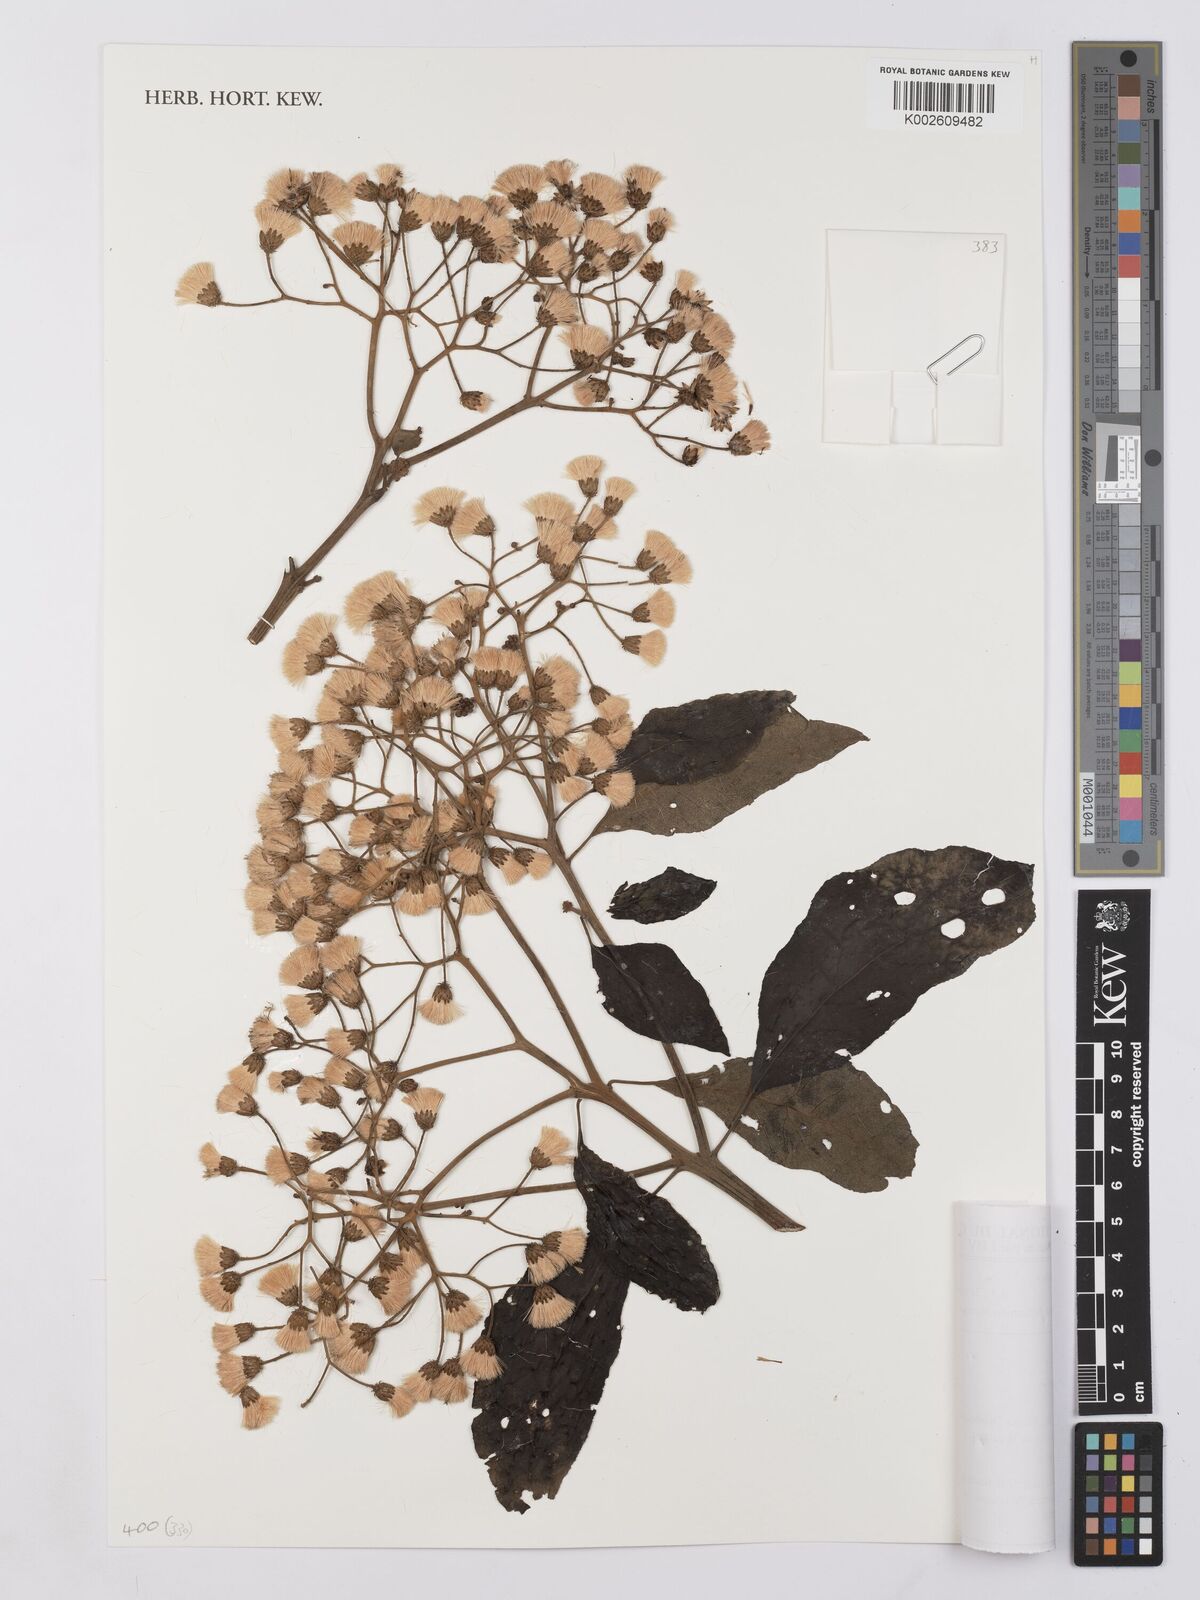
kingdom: Plantae
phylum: Tracheophyta
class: Magnoliopsida
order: Asterales
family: Asteraceae
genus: Vernonia
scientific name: Vernonia
